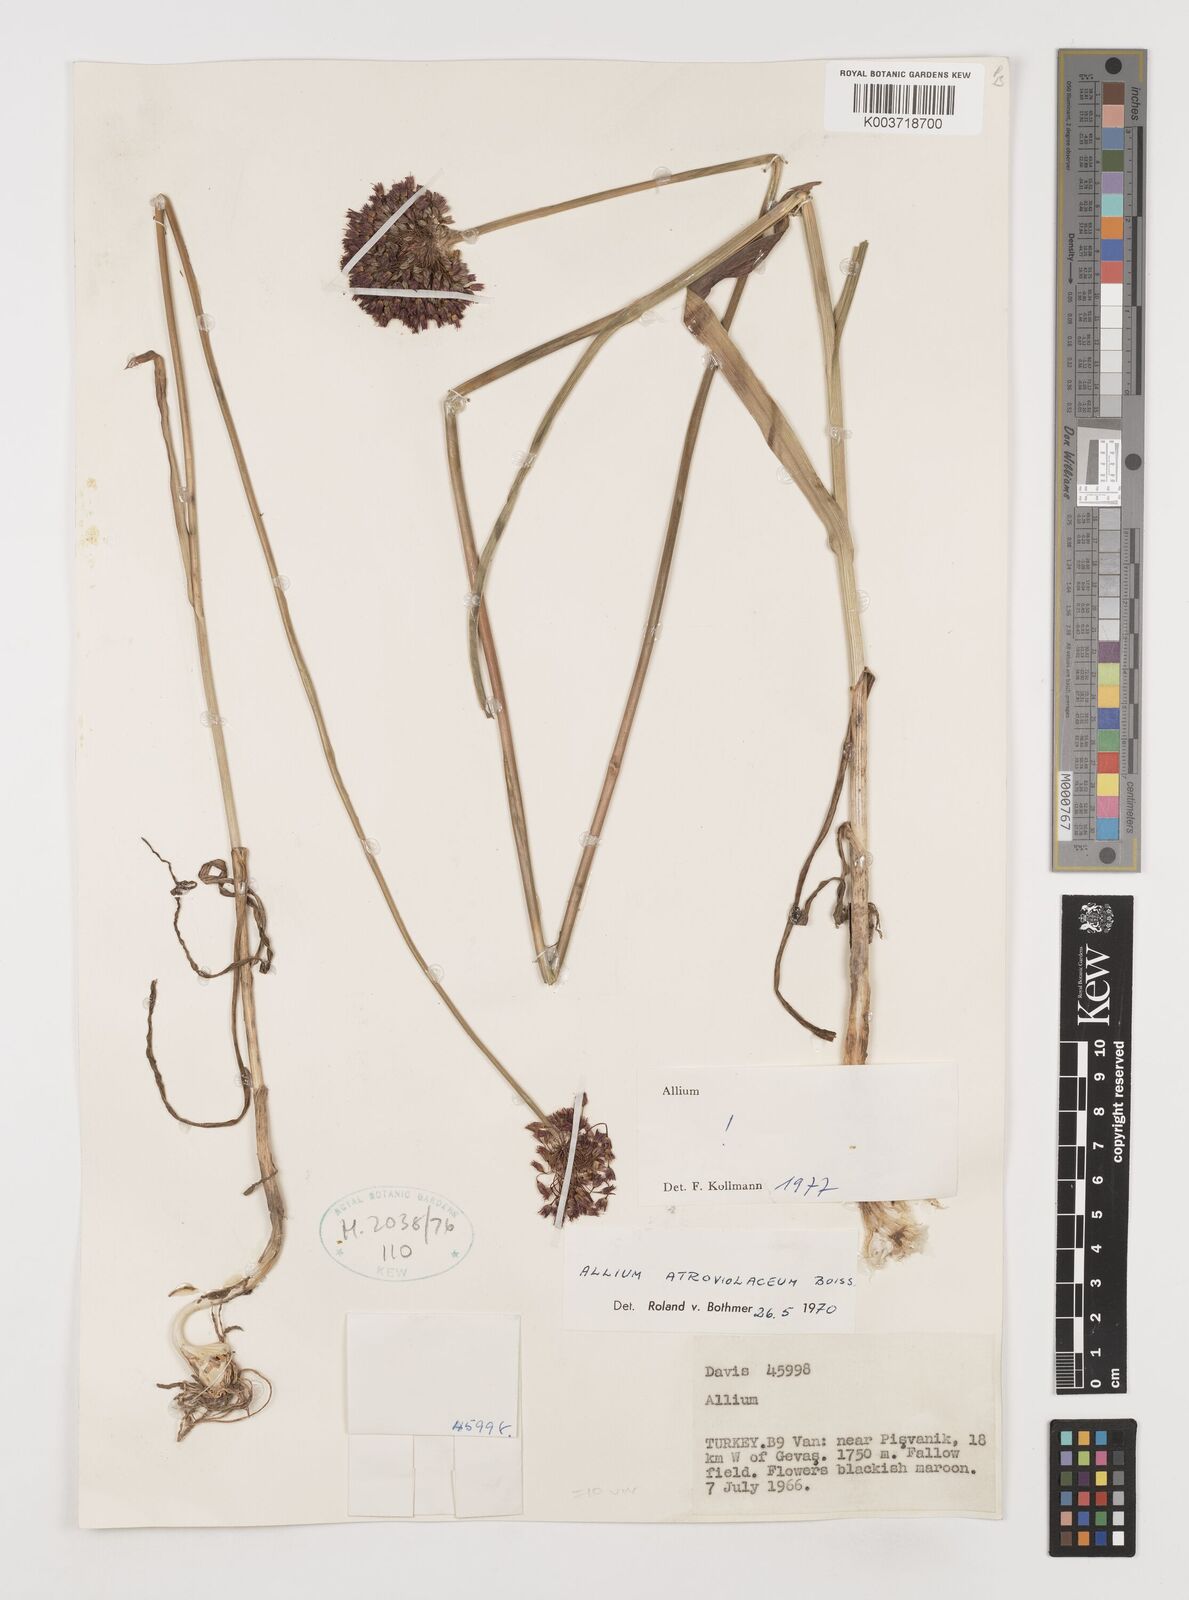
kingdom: Plantae
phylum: Tracheophyta
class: Liliopsida
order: Asparagales
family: Amaryllidaceae
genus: Allium
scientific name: Allium atroviolaceum
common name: Broadleaf wild leek
